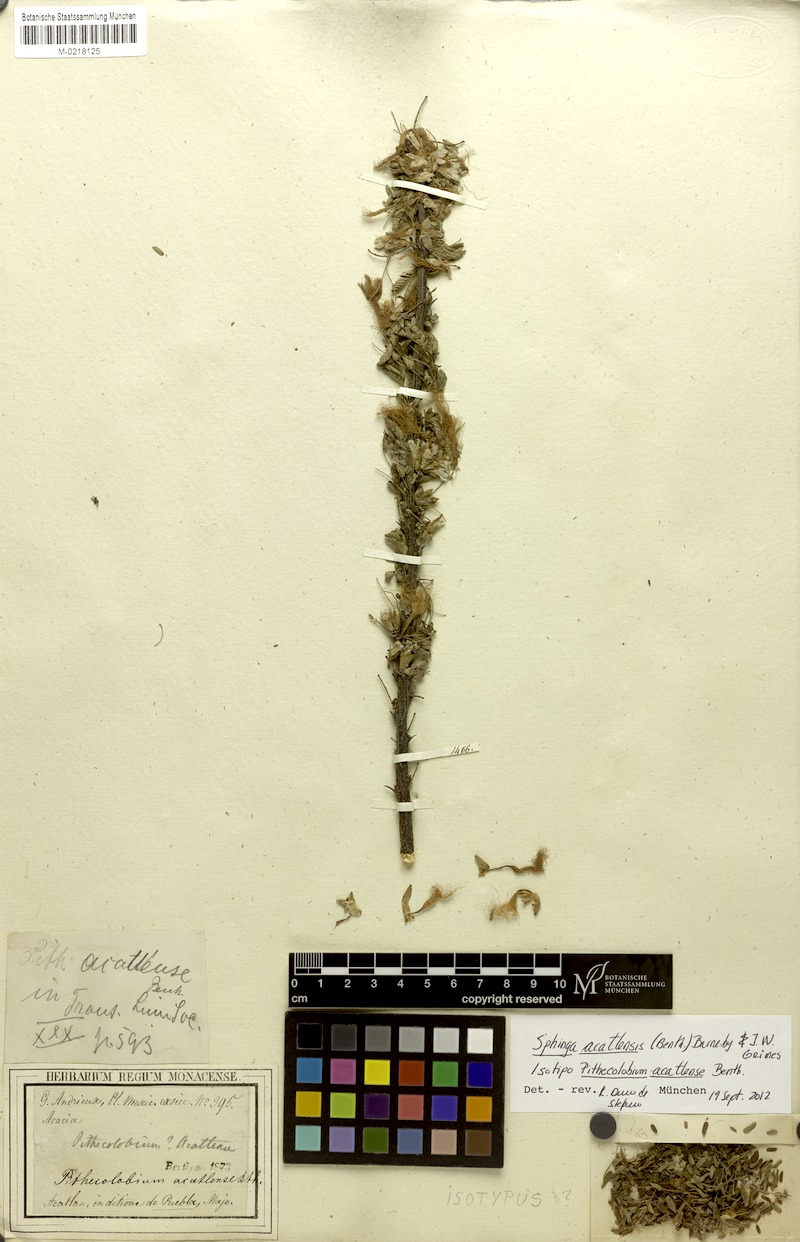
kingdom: Plantae
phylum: Tracheophyta
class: Magnoliopsida
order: Fabales
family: Fabaceae
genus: Havardia
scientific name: Havardia acatlensis
